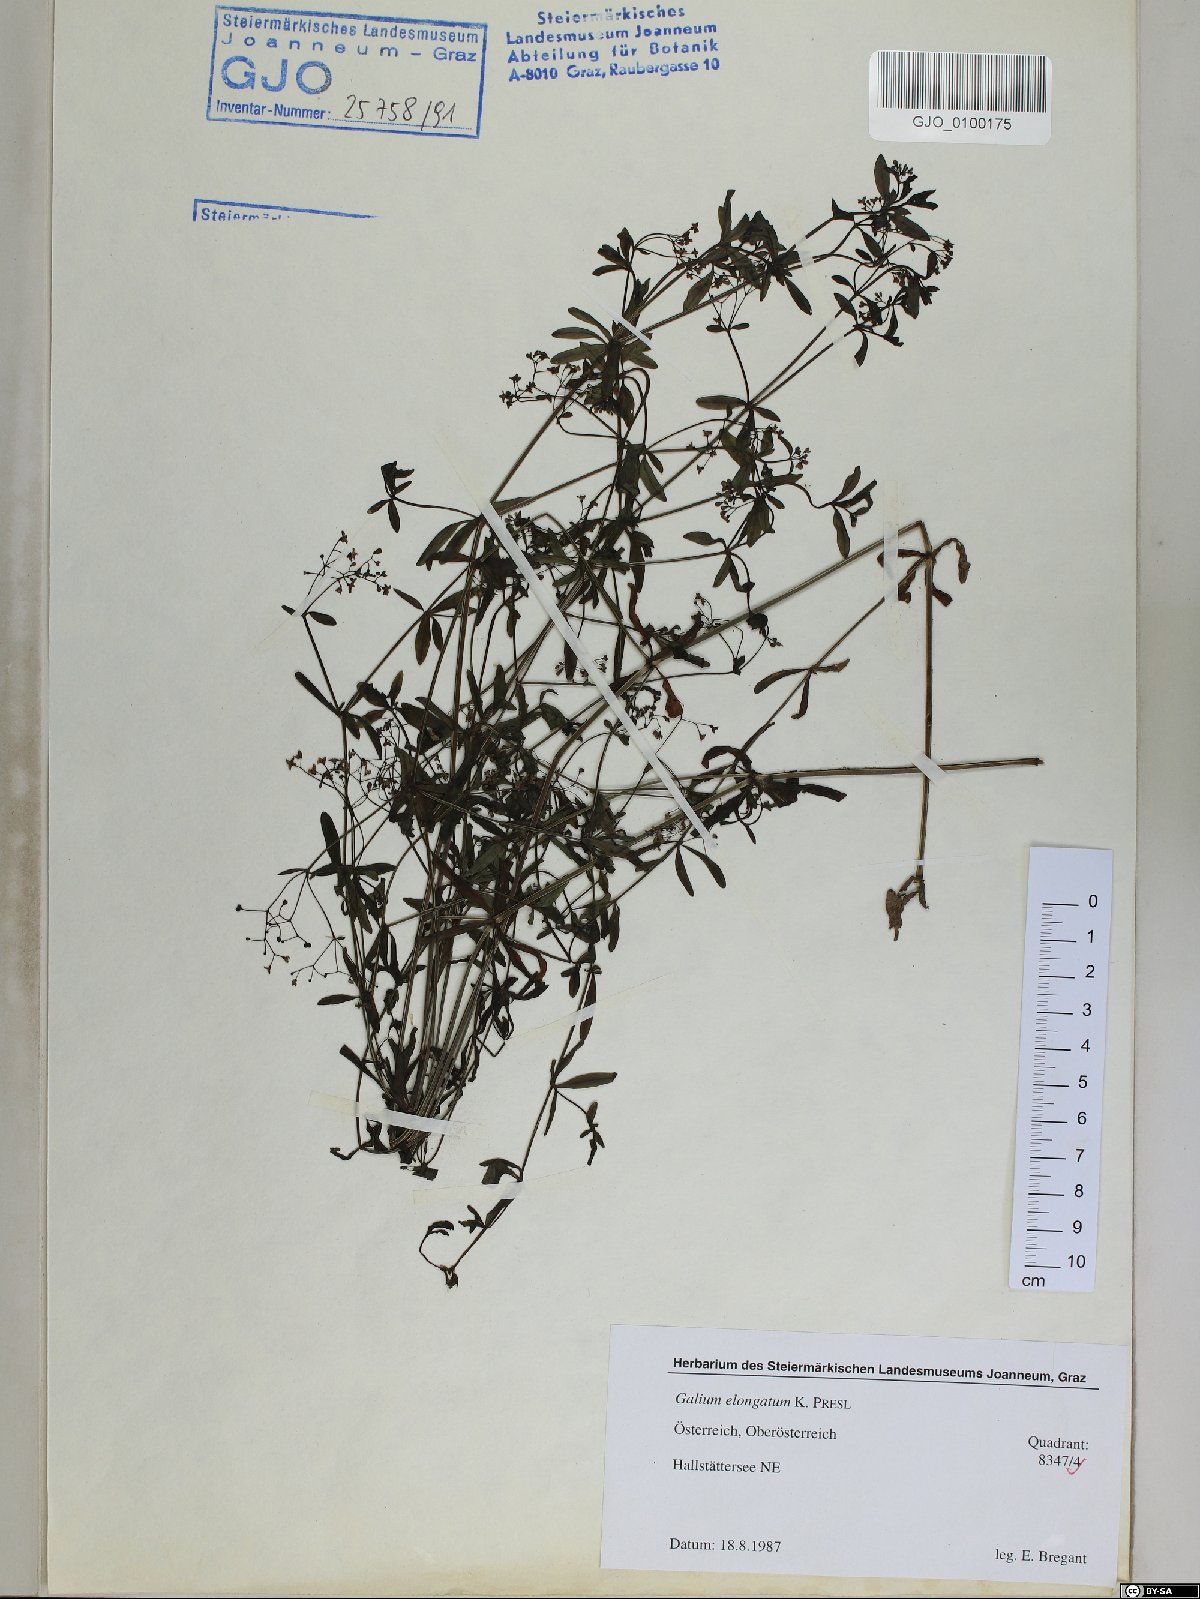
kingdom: Plantae
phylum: Tracheophyta
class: Magnoliopsida
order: Gentianales
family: Rubiaceae
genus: Galium
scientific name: Galium elongatum
